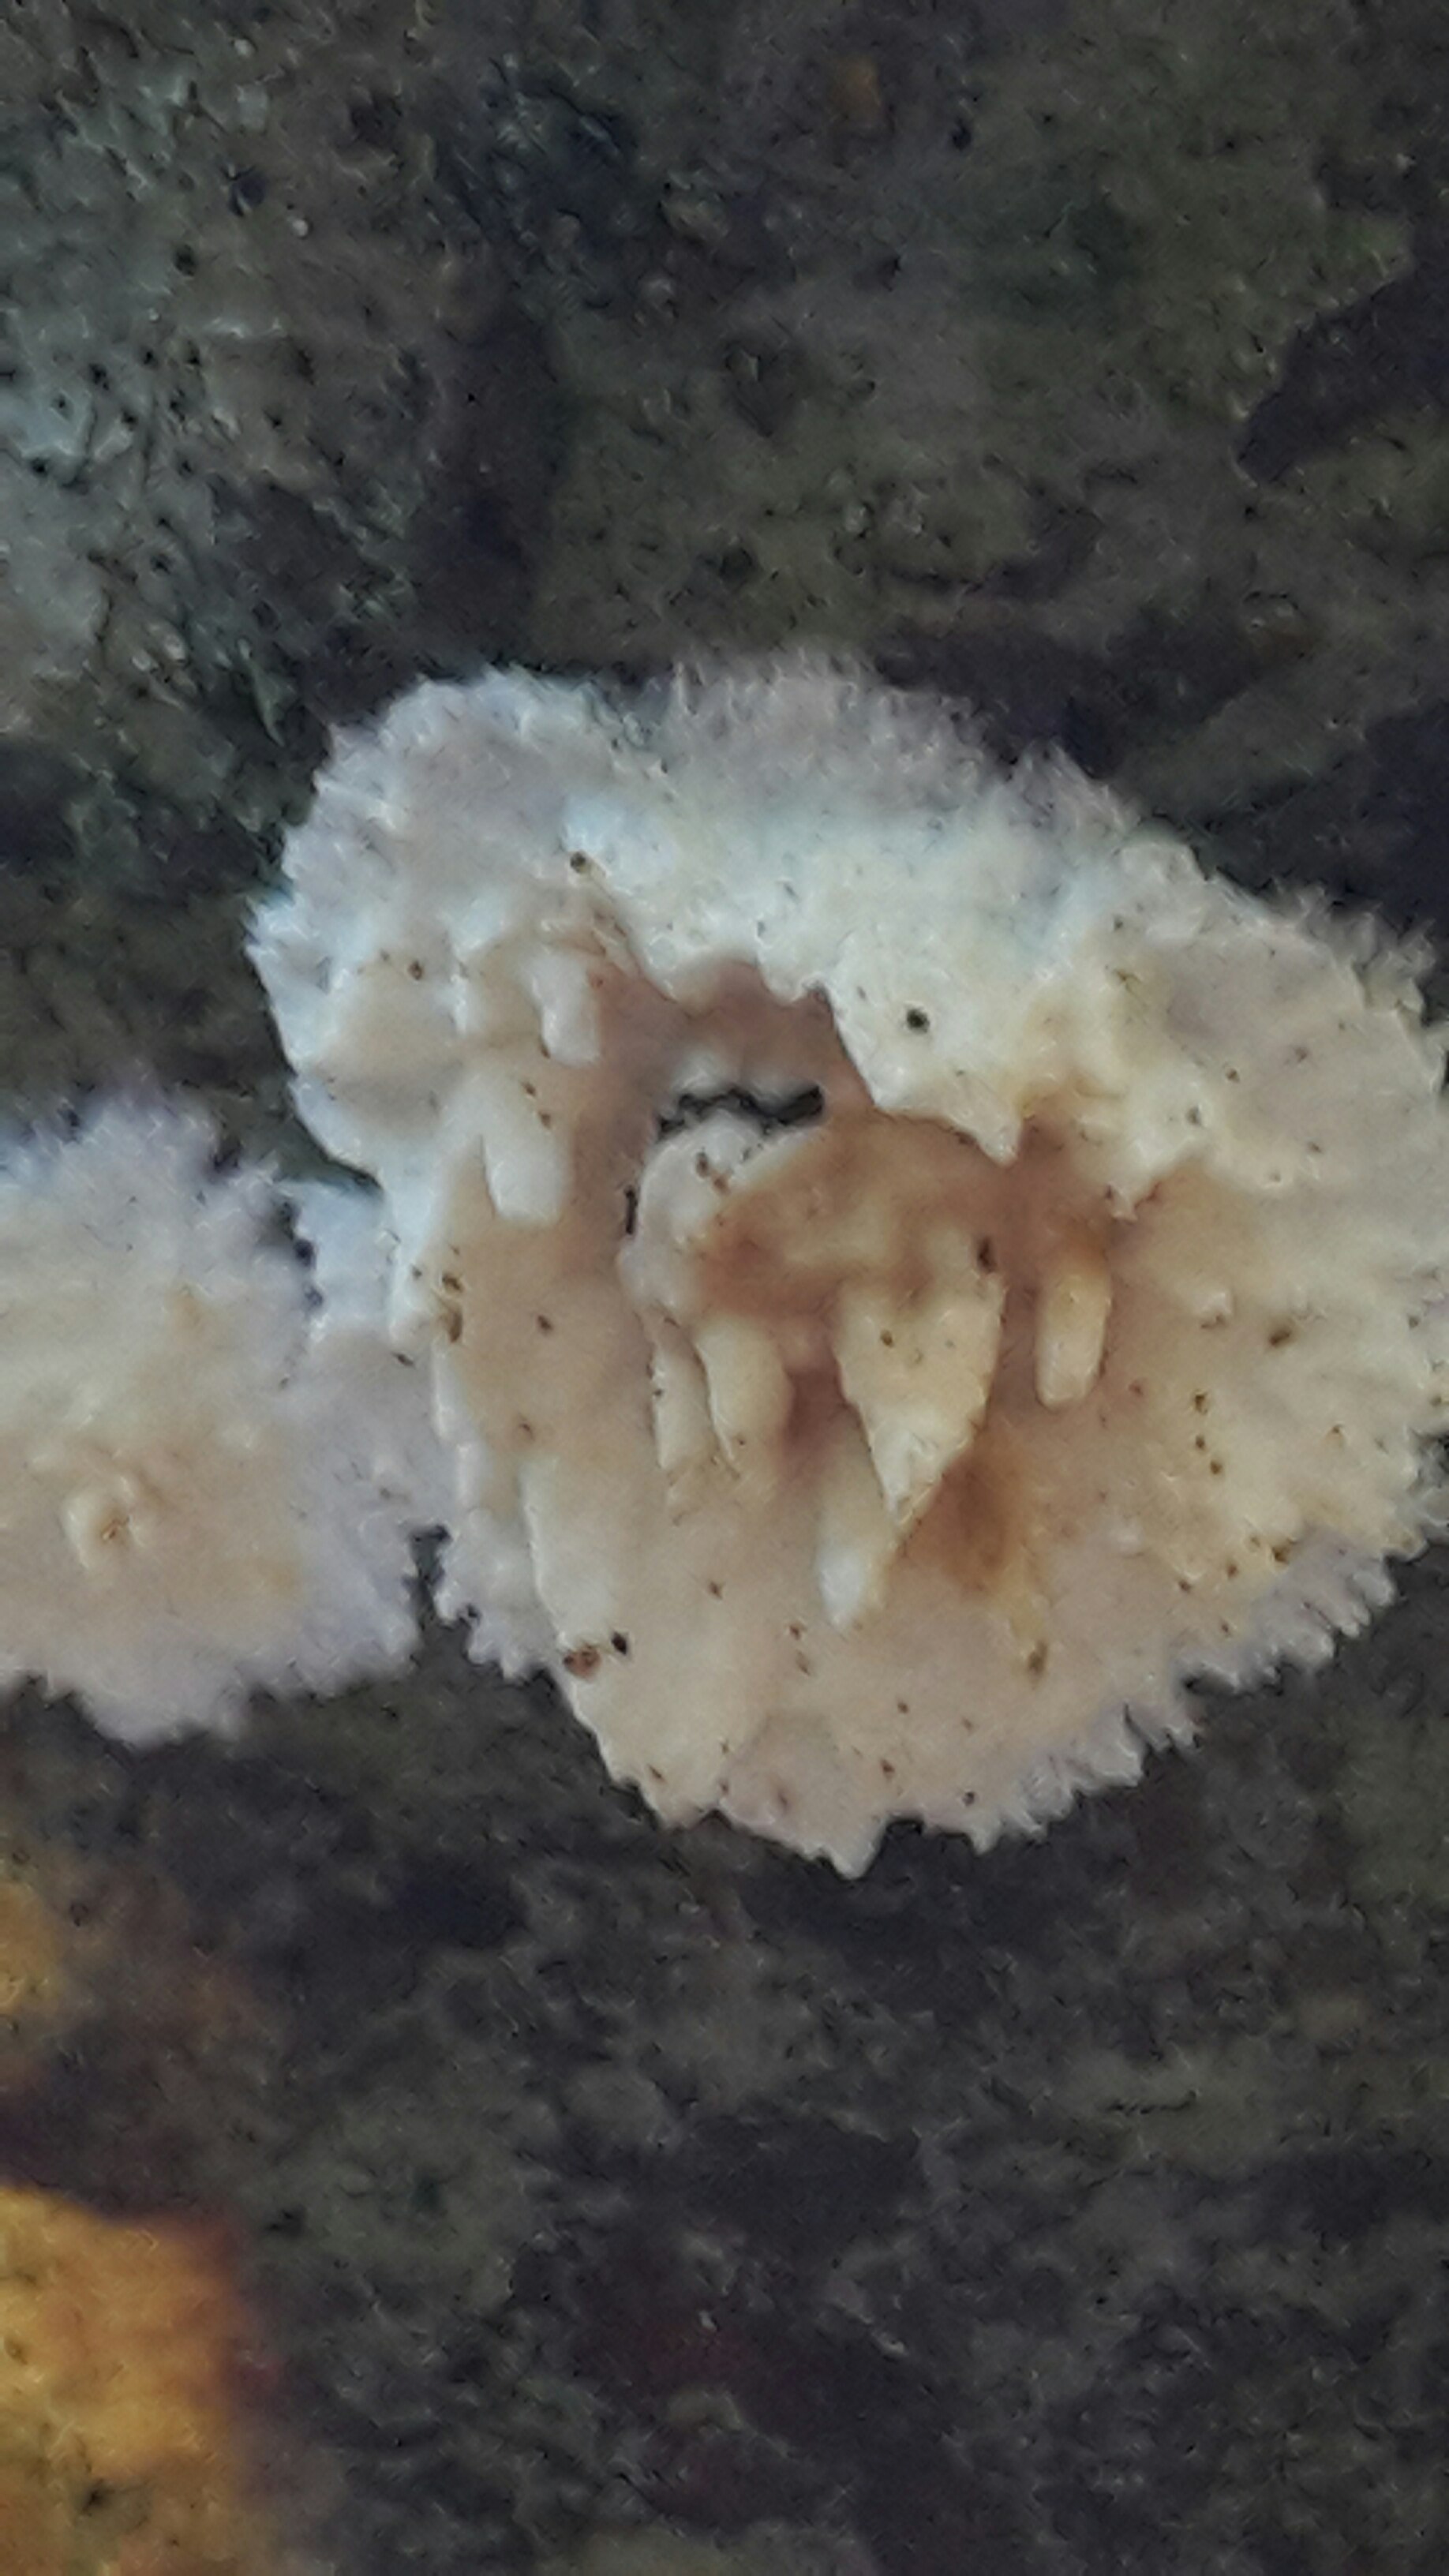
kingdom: Fungi
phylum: Basidiomycota
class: Agaricomycetes
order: Hymenochaetales
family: Schizoporaceae
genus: Xylodon
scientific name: Xylodon radula
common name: grovtandet kalkskind
